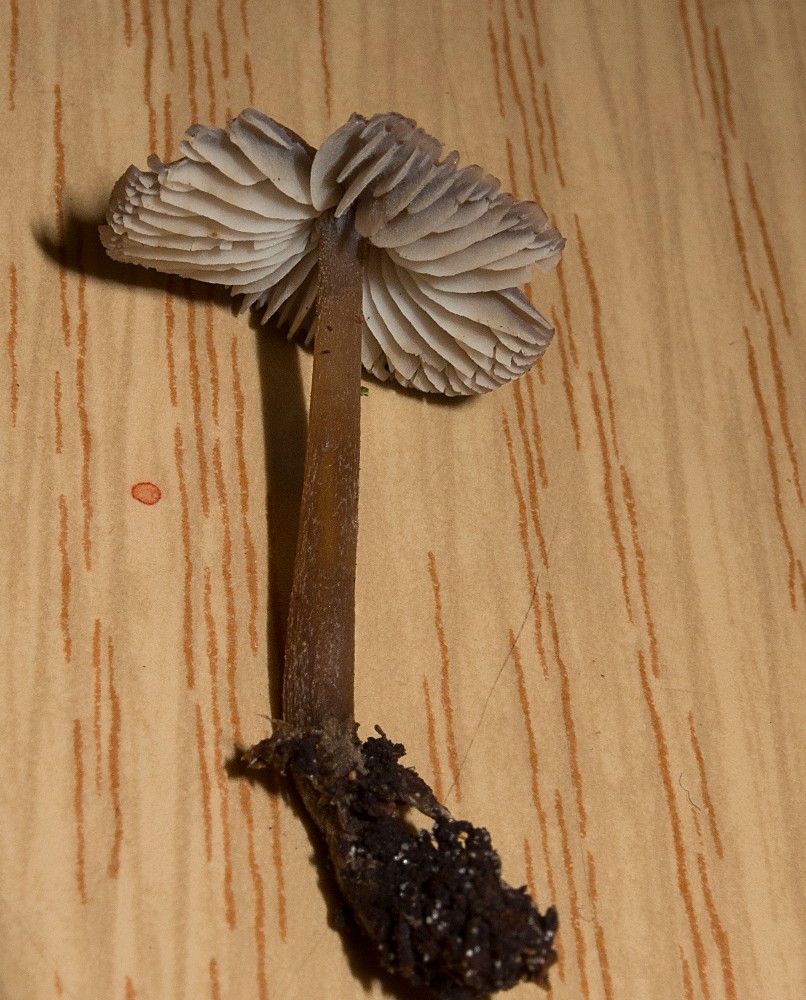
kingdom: Fungi
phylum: Basidiomycota
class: Agaricomycetes
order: Agaricales
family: Mycenaceae
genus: Mycopan
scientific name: Mycopan scabripes
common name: mørk fnugfod
